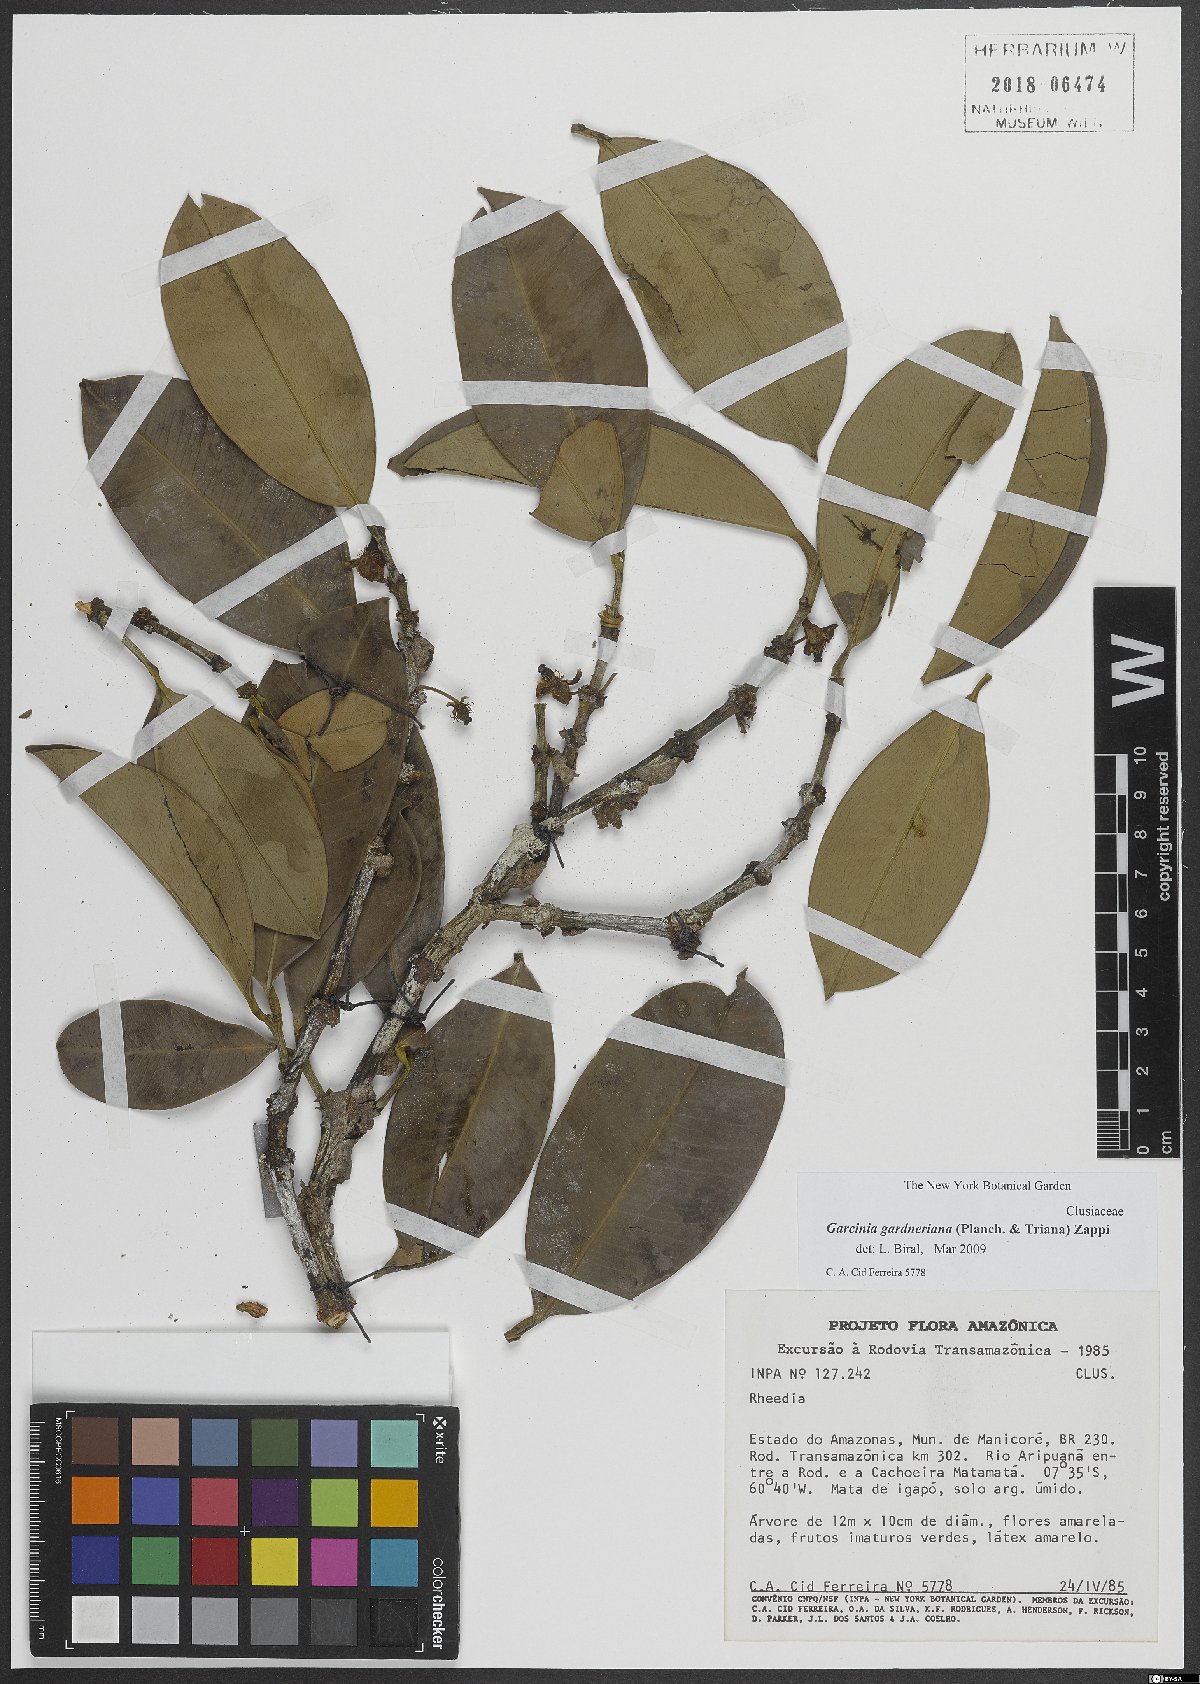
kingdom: Plantae
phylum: Tracheophyta
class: Magnoliopsida
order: Malpighiales
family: Clusiaceae
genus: Garcinia
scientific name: Garcinia gardneriana
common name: Achacha
